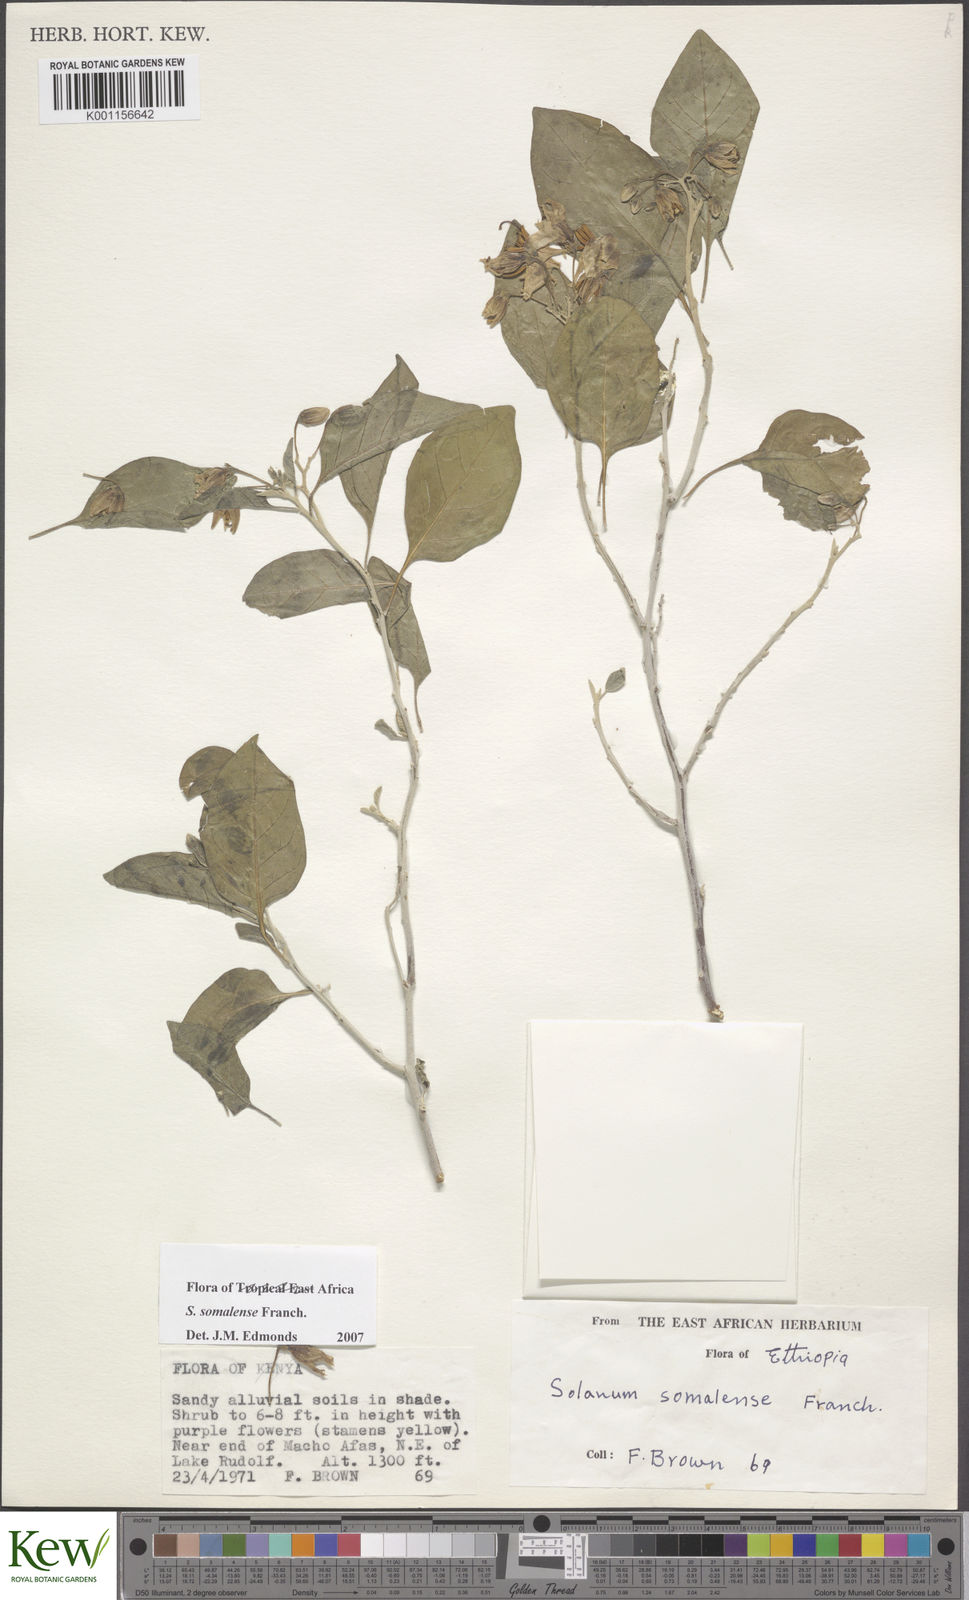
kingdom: Plantae
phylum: Tracheophyta
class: Magnoliopsida
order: Solanales
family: Solanaceae
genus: Solanum
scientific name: Solanum somalense
